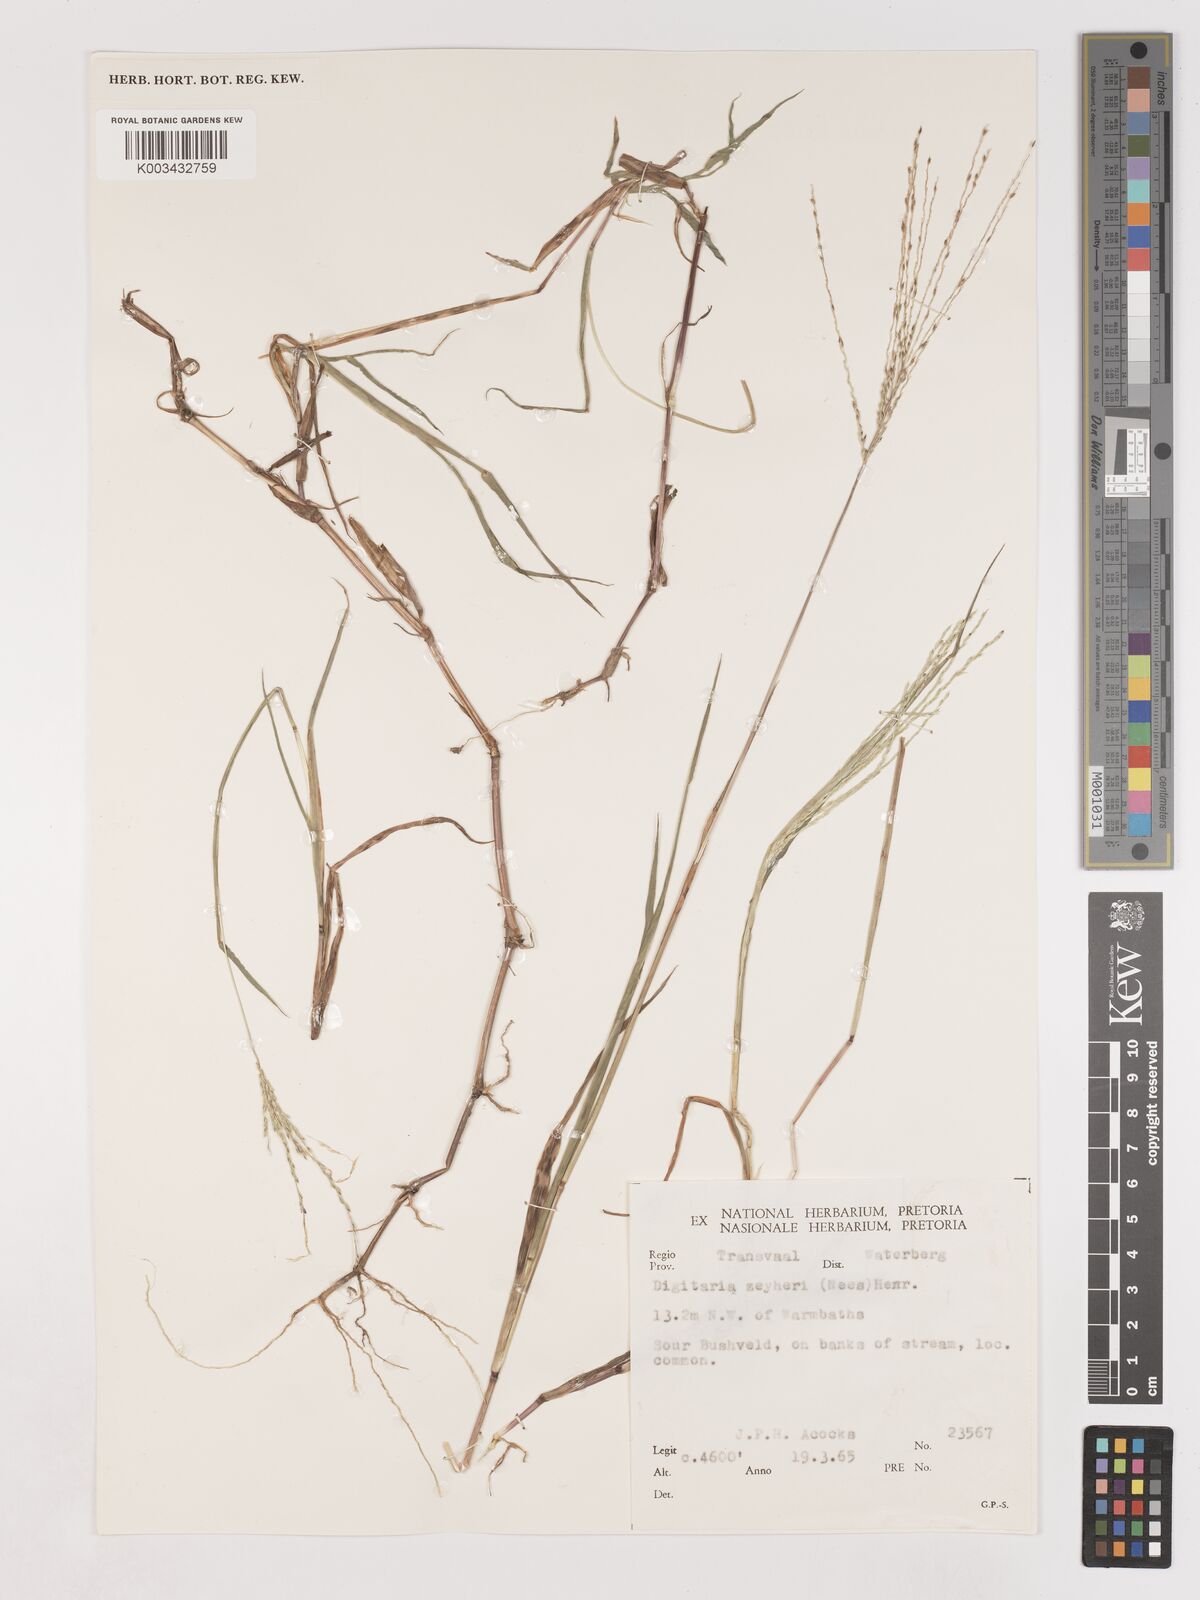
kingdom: Plantae
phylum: Tracheophyta
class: Liliopsida
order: Poales
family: Poaceae
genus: Digitaria
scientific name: Digitaria debilis
